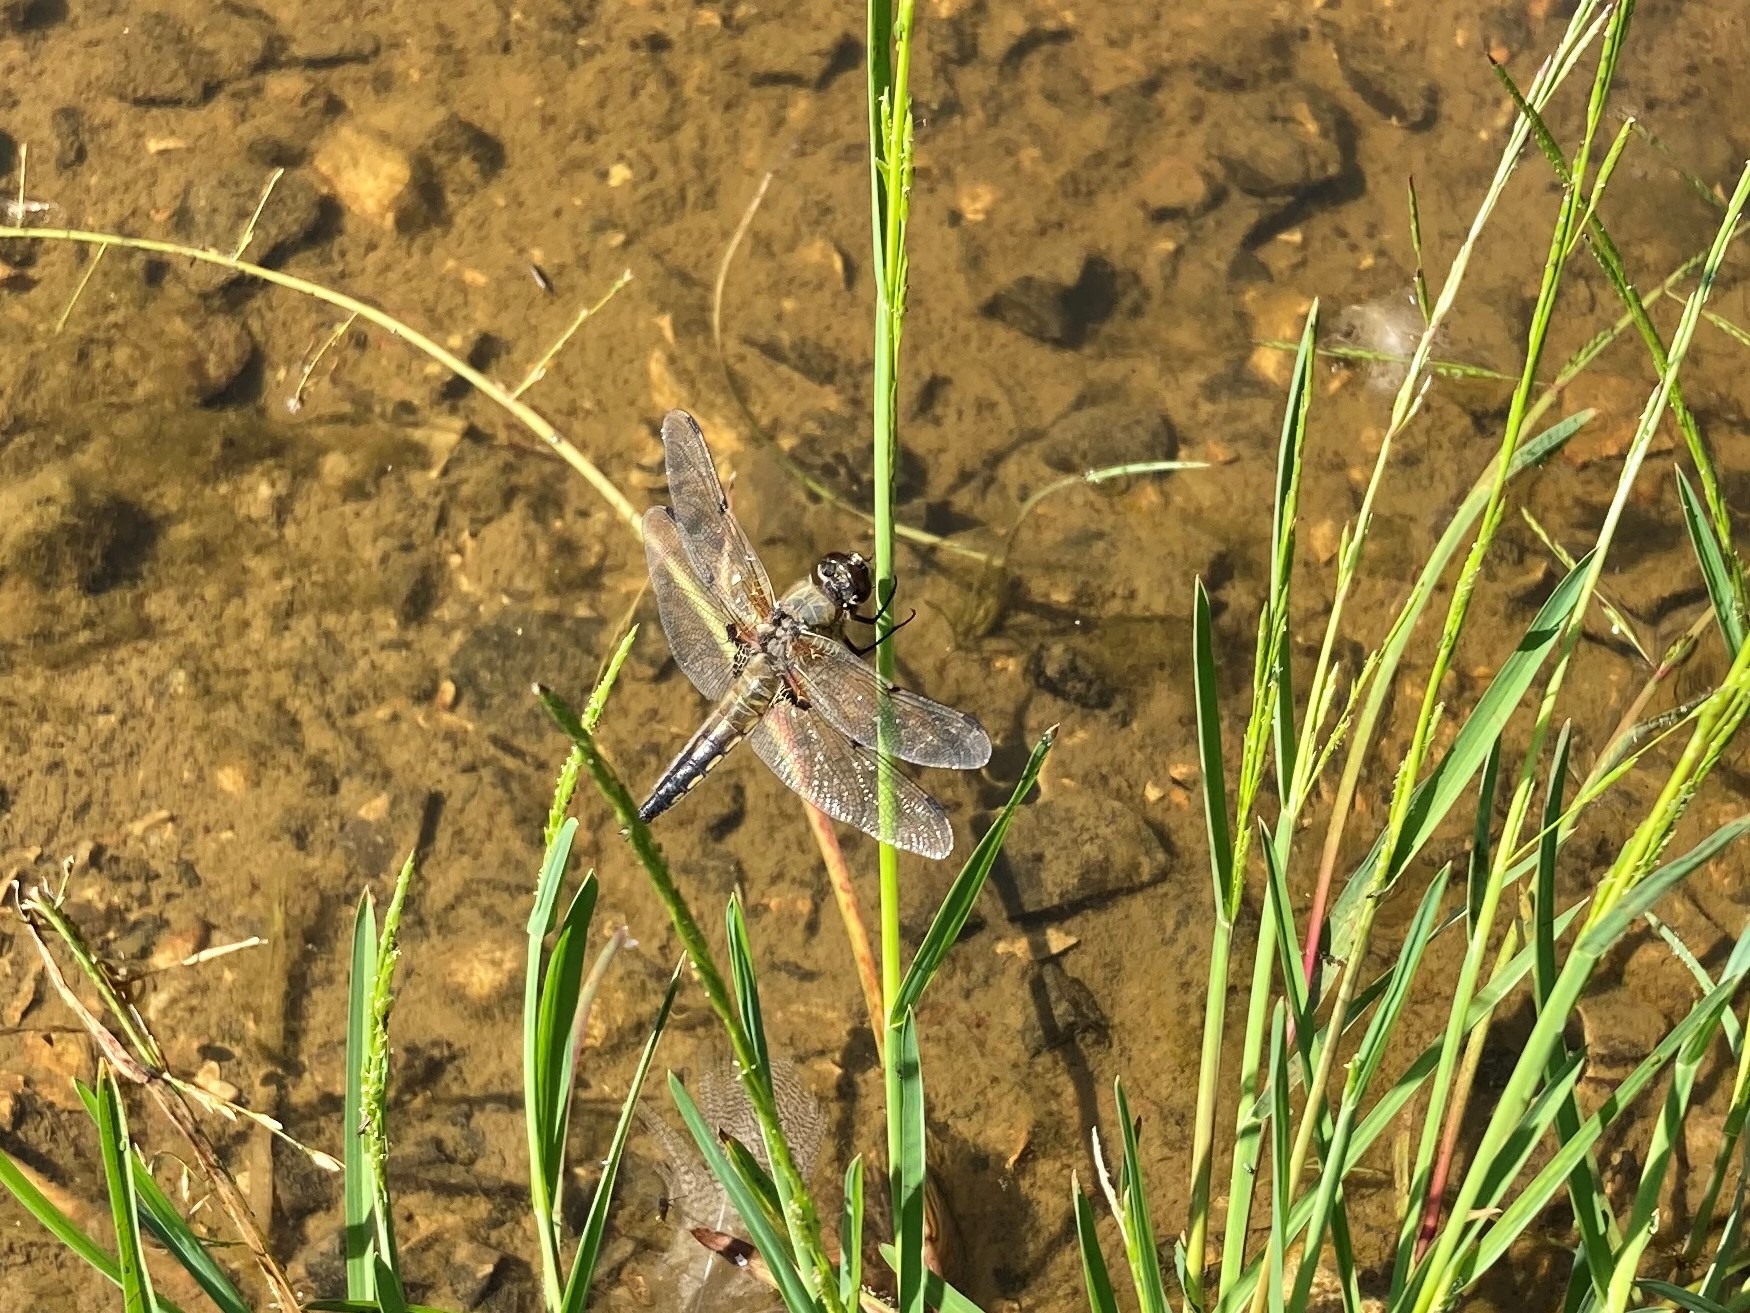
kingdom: Animalia
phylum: Arthropoda
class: Insecta
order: Odonata
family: Libellulidae
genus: Libellula
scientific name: Libellula quadrimaculata
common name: Fireplettet libel
